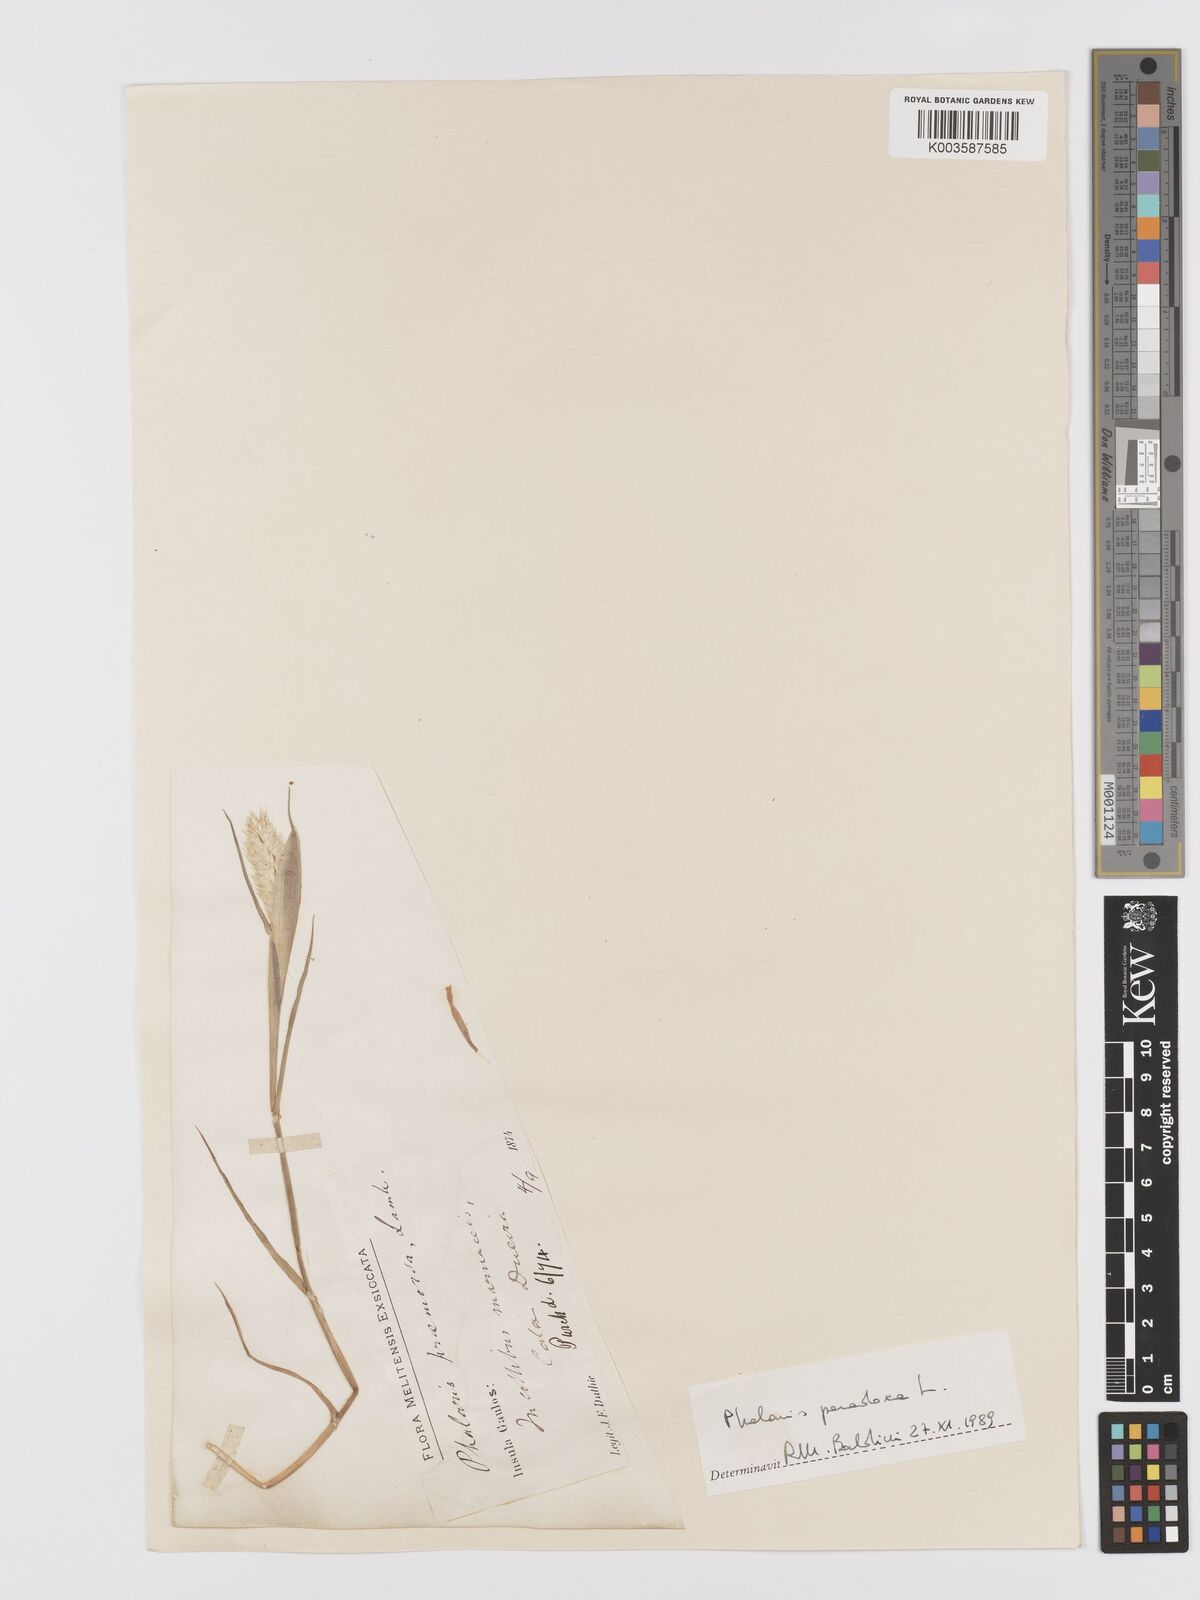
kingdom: Plantae
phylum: Tracheophyta
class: Liliopsida
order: Poales
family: Poaceae
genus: Phalaris
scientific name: Phalaris paradoxa
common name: Awned canary-grass
